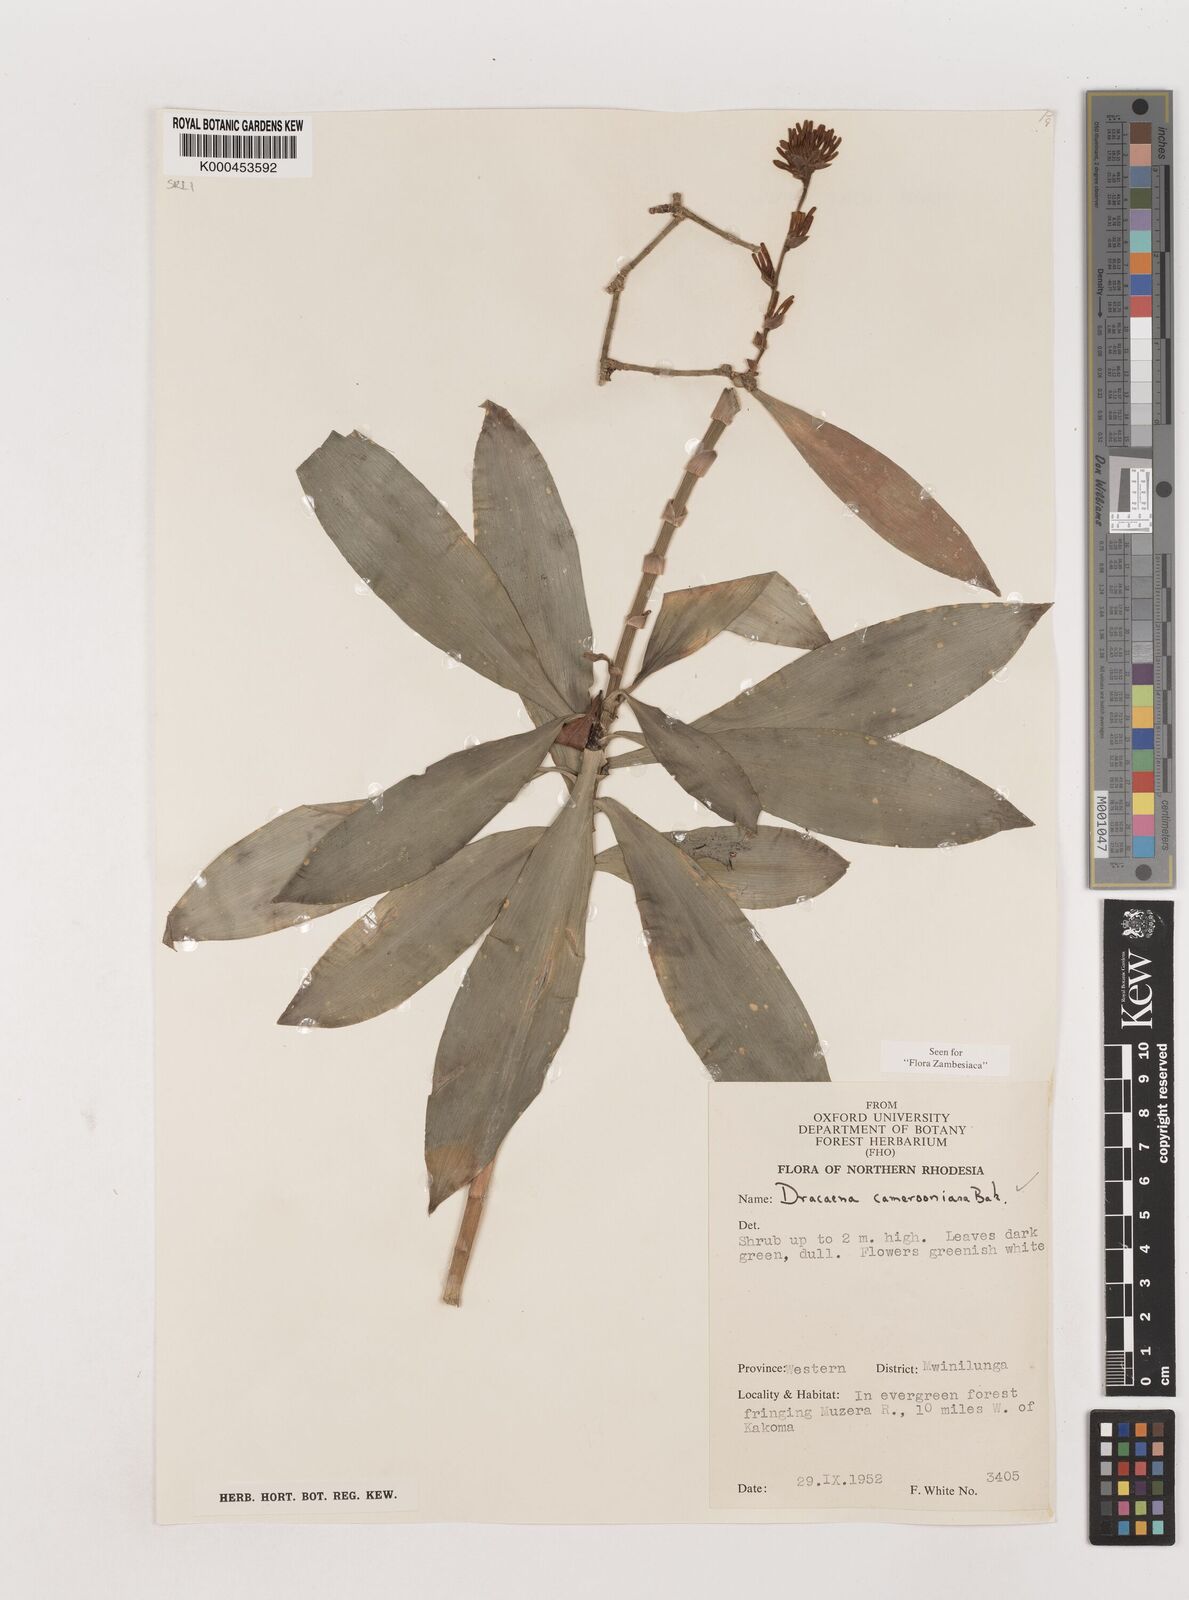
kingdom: Plantae
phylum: Tracheophyta
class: Liliopsida
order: Asparagales
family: Asparagaceae
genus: Dracaena
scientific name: Dracaena camerooniana
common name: Dragon tree
